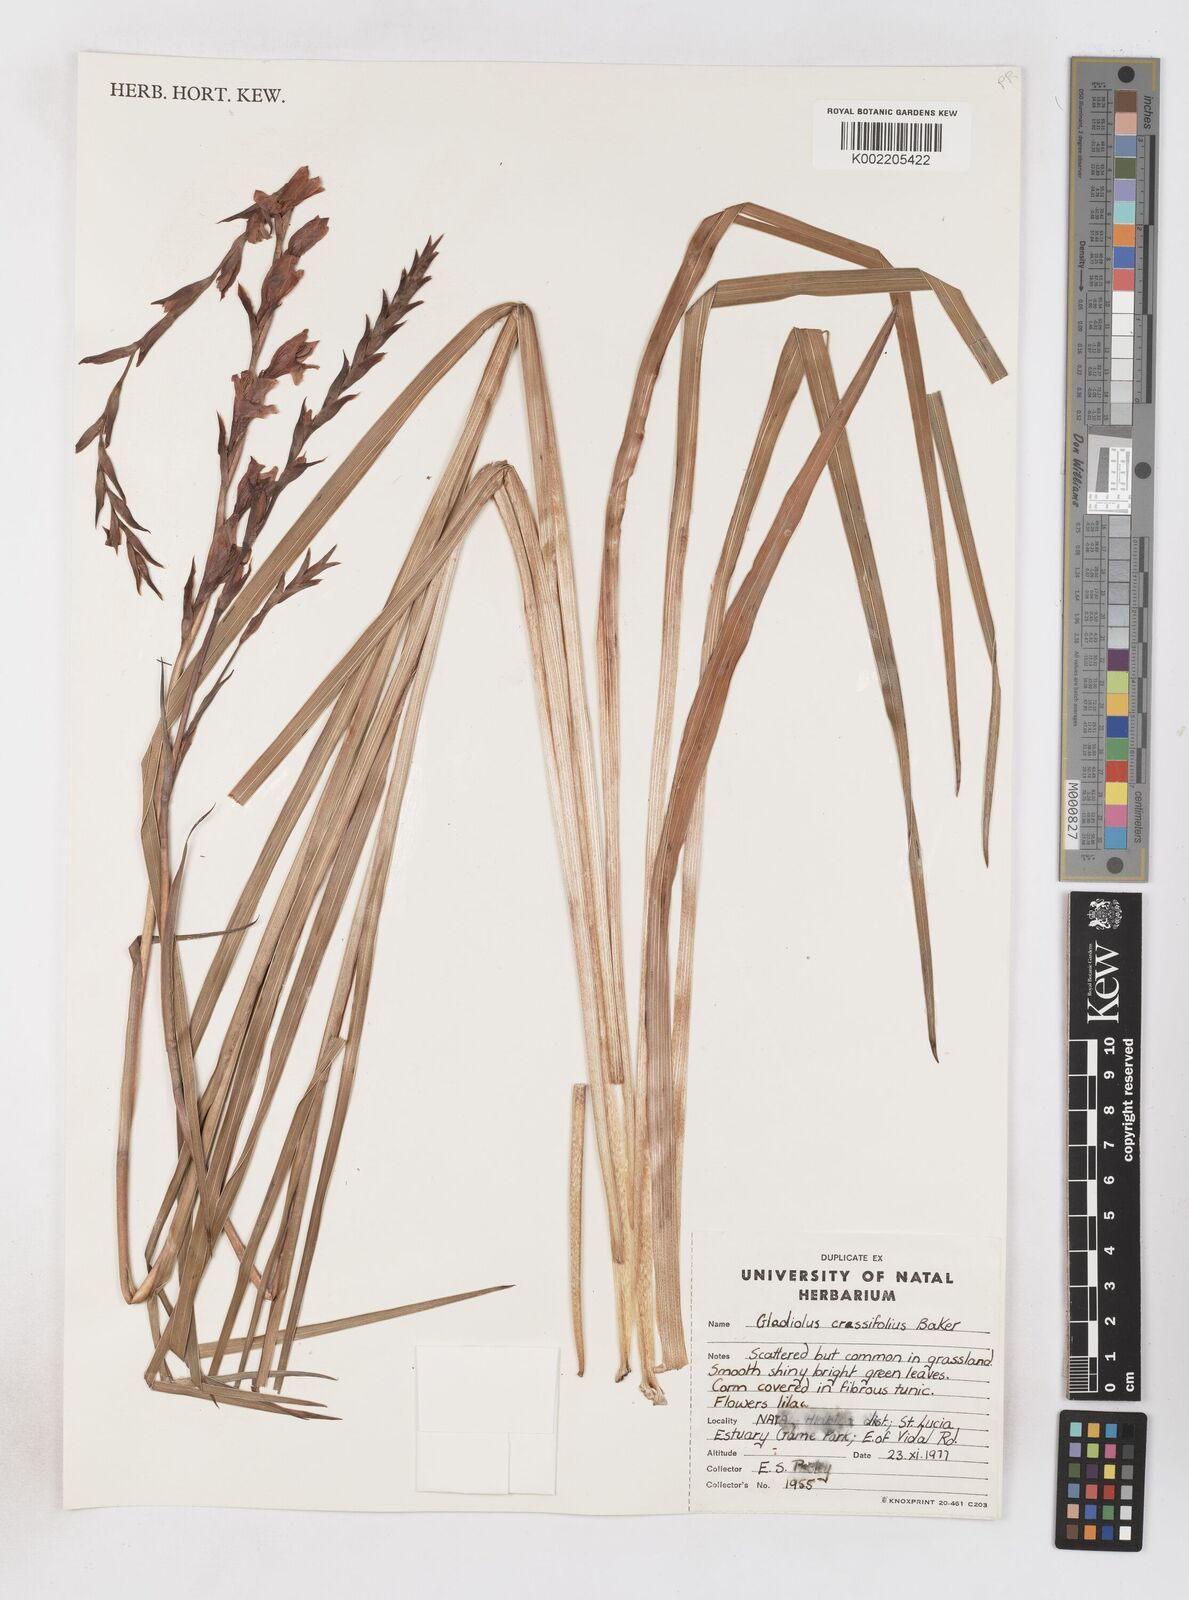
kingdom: Plantae
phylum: Tracheophyta
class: Liliopsida
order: Asparagales
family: Iridaceae
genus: Gladiolus
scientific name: Gladiolus densiflorus
